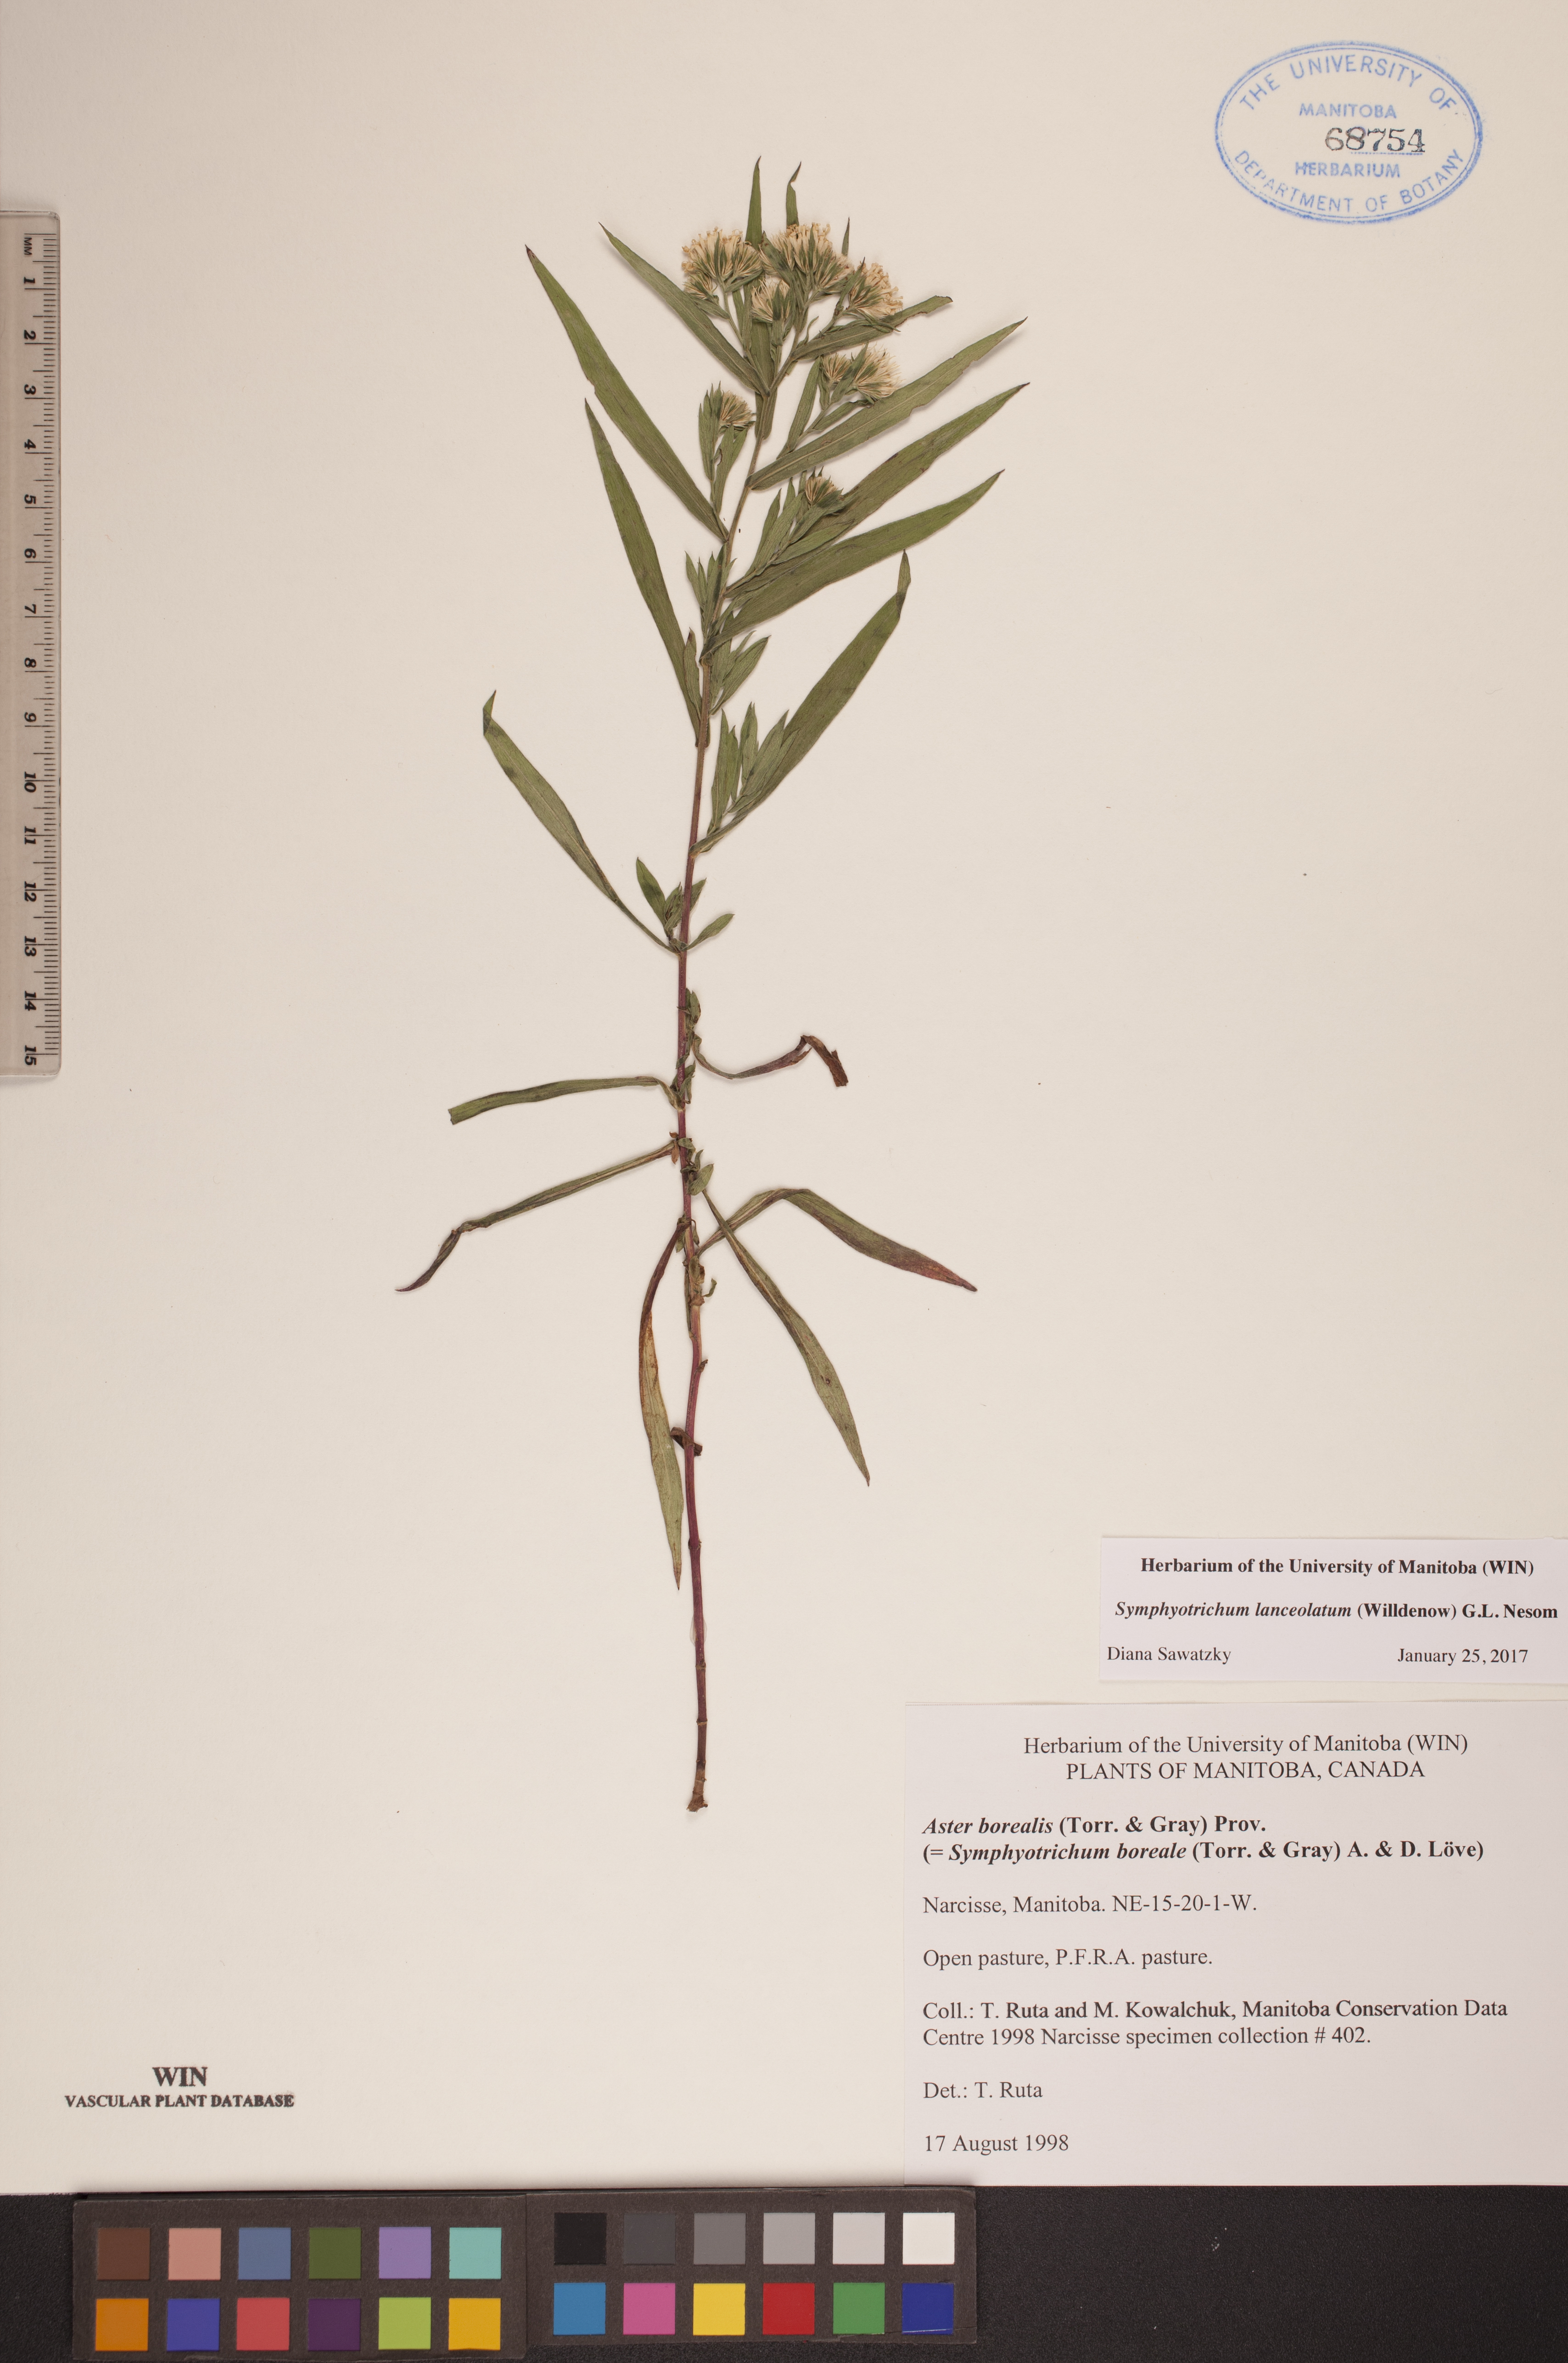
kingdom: Plantae
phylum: Tracheophyta
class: Magnoliopsida
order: Asterales
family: Asteraceae
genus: Symphyotrichum
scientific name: Symphyotrichum lanceolatum
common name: Panicled aster
